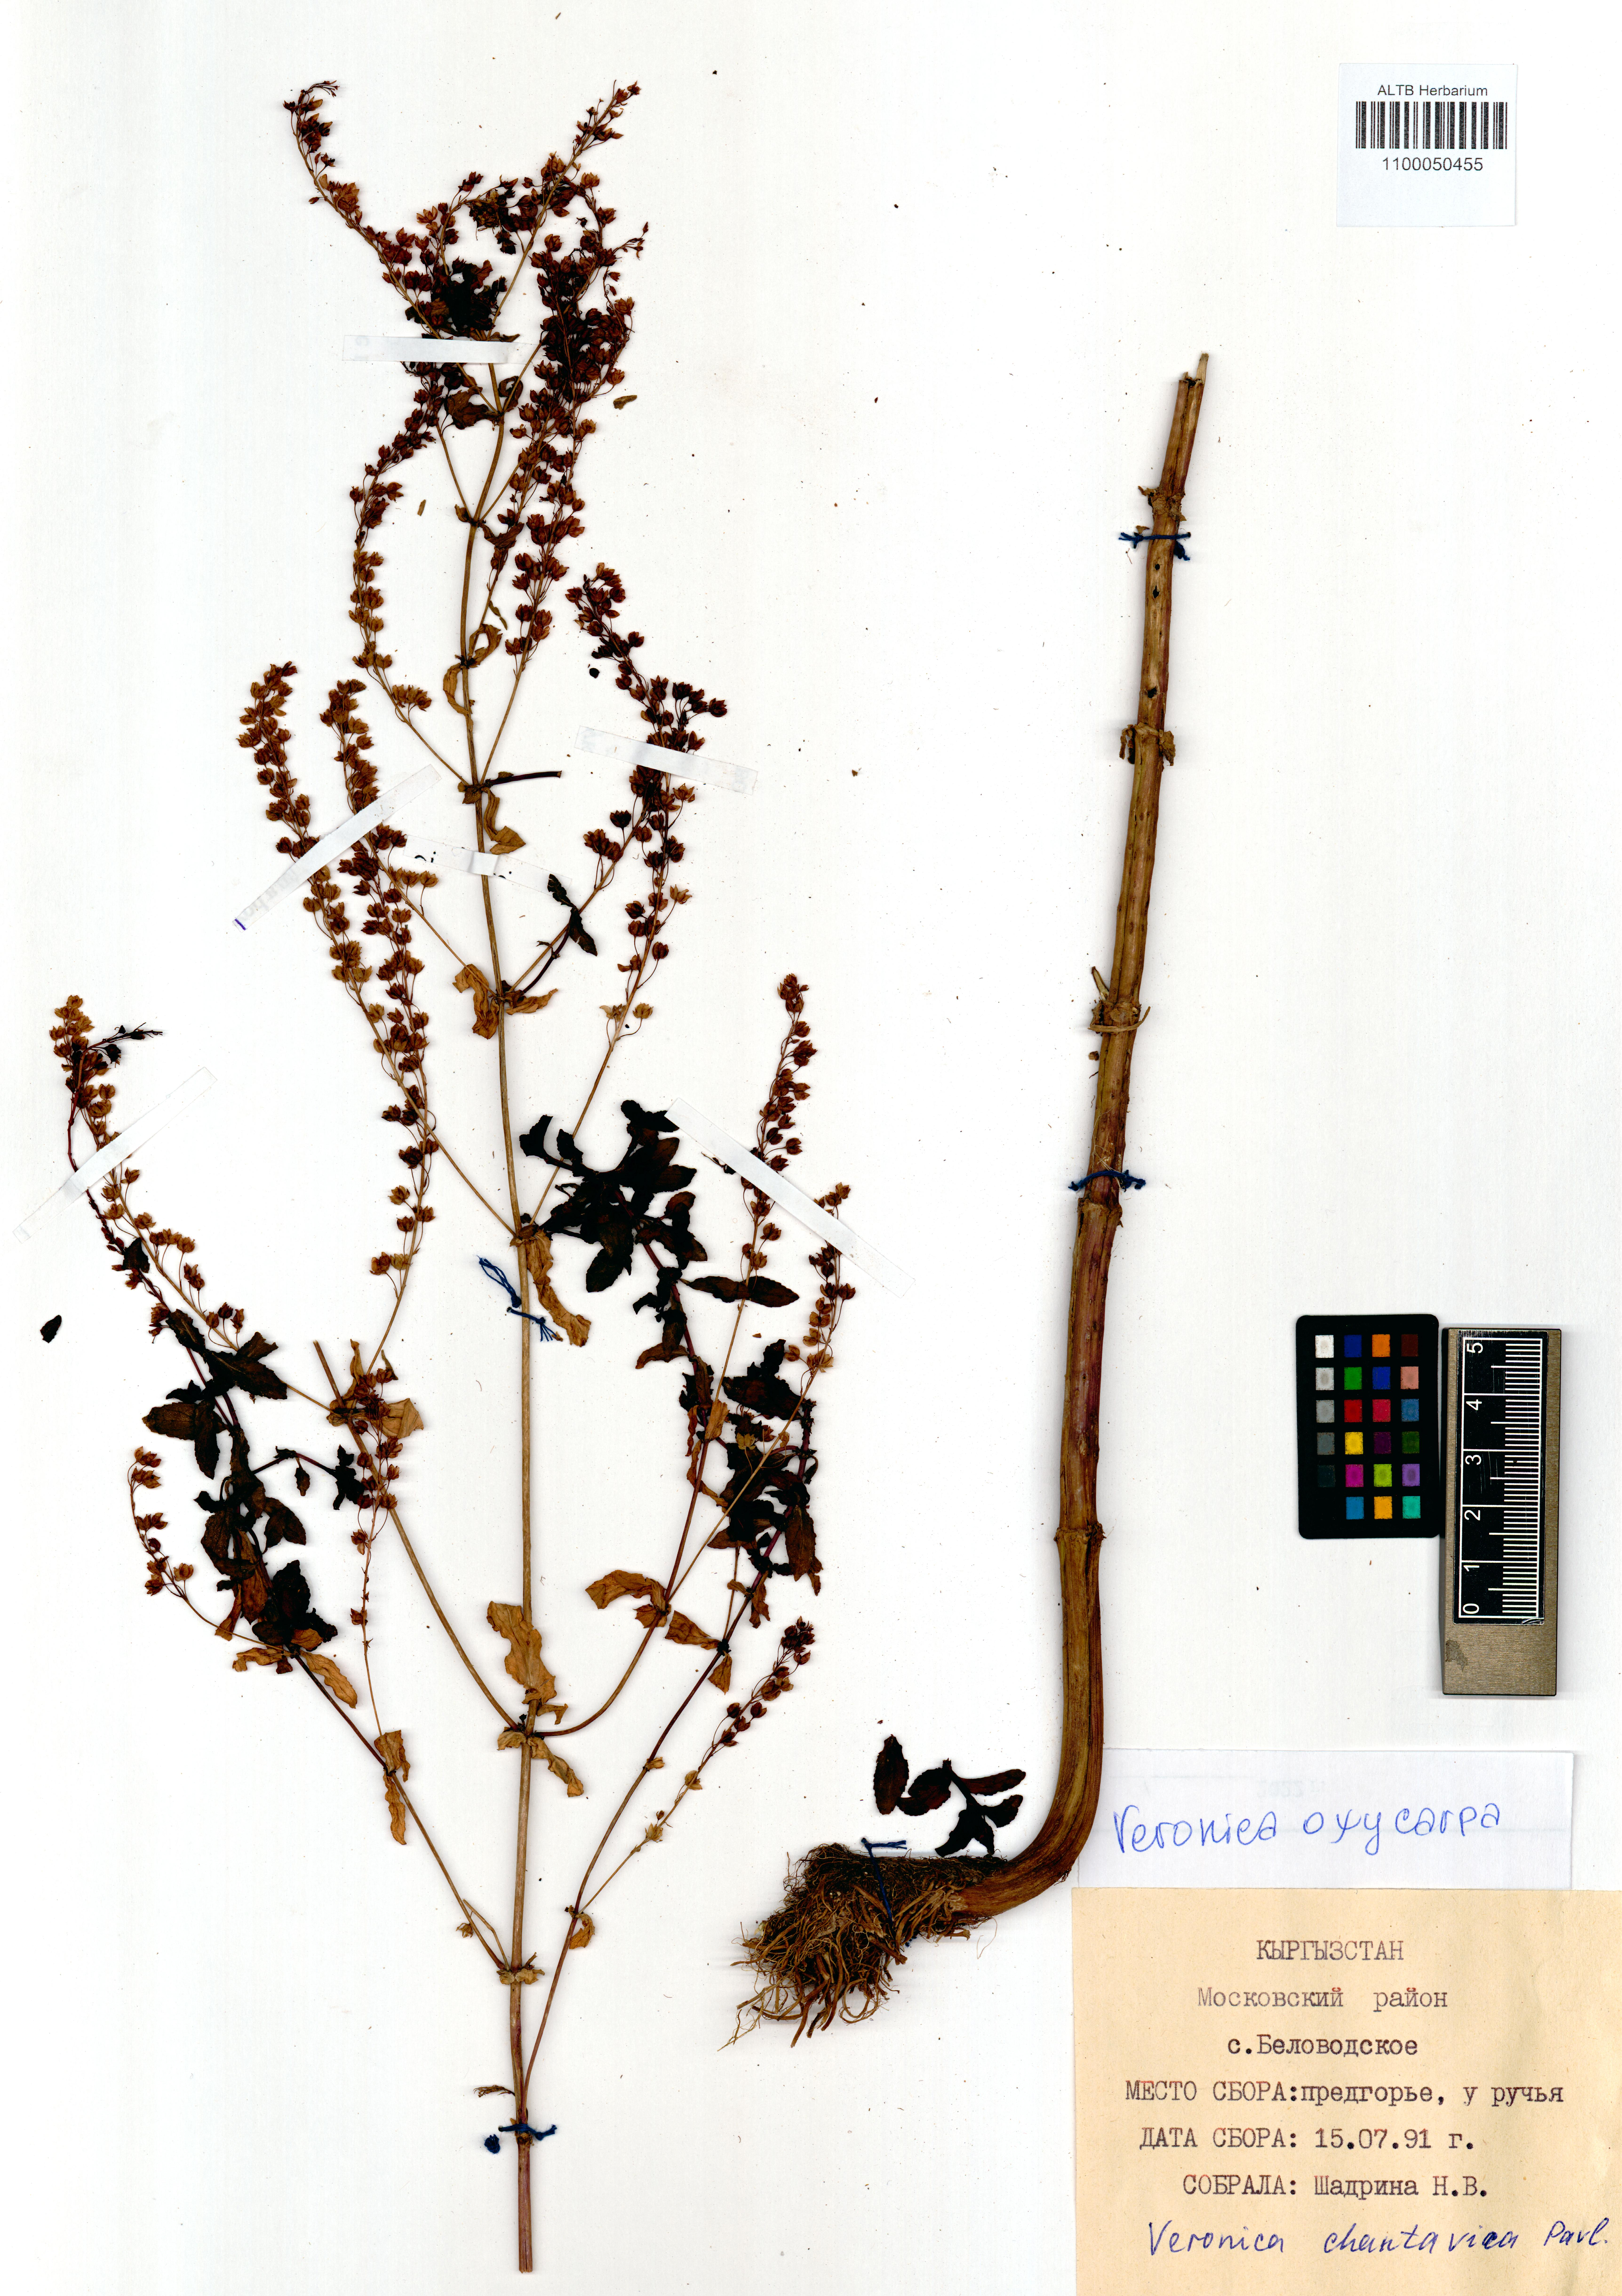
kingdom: Plantae
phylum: Tracheophyta
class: Magnoliopsida
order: Lamiales
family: Plantaginaceae
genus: Veronica
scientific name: Veronica oxycarpa
